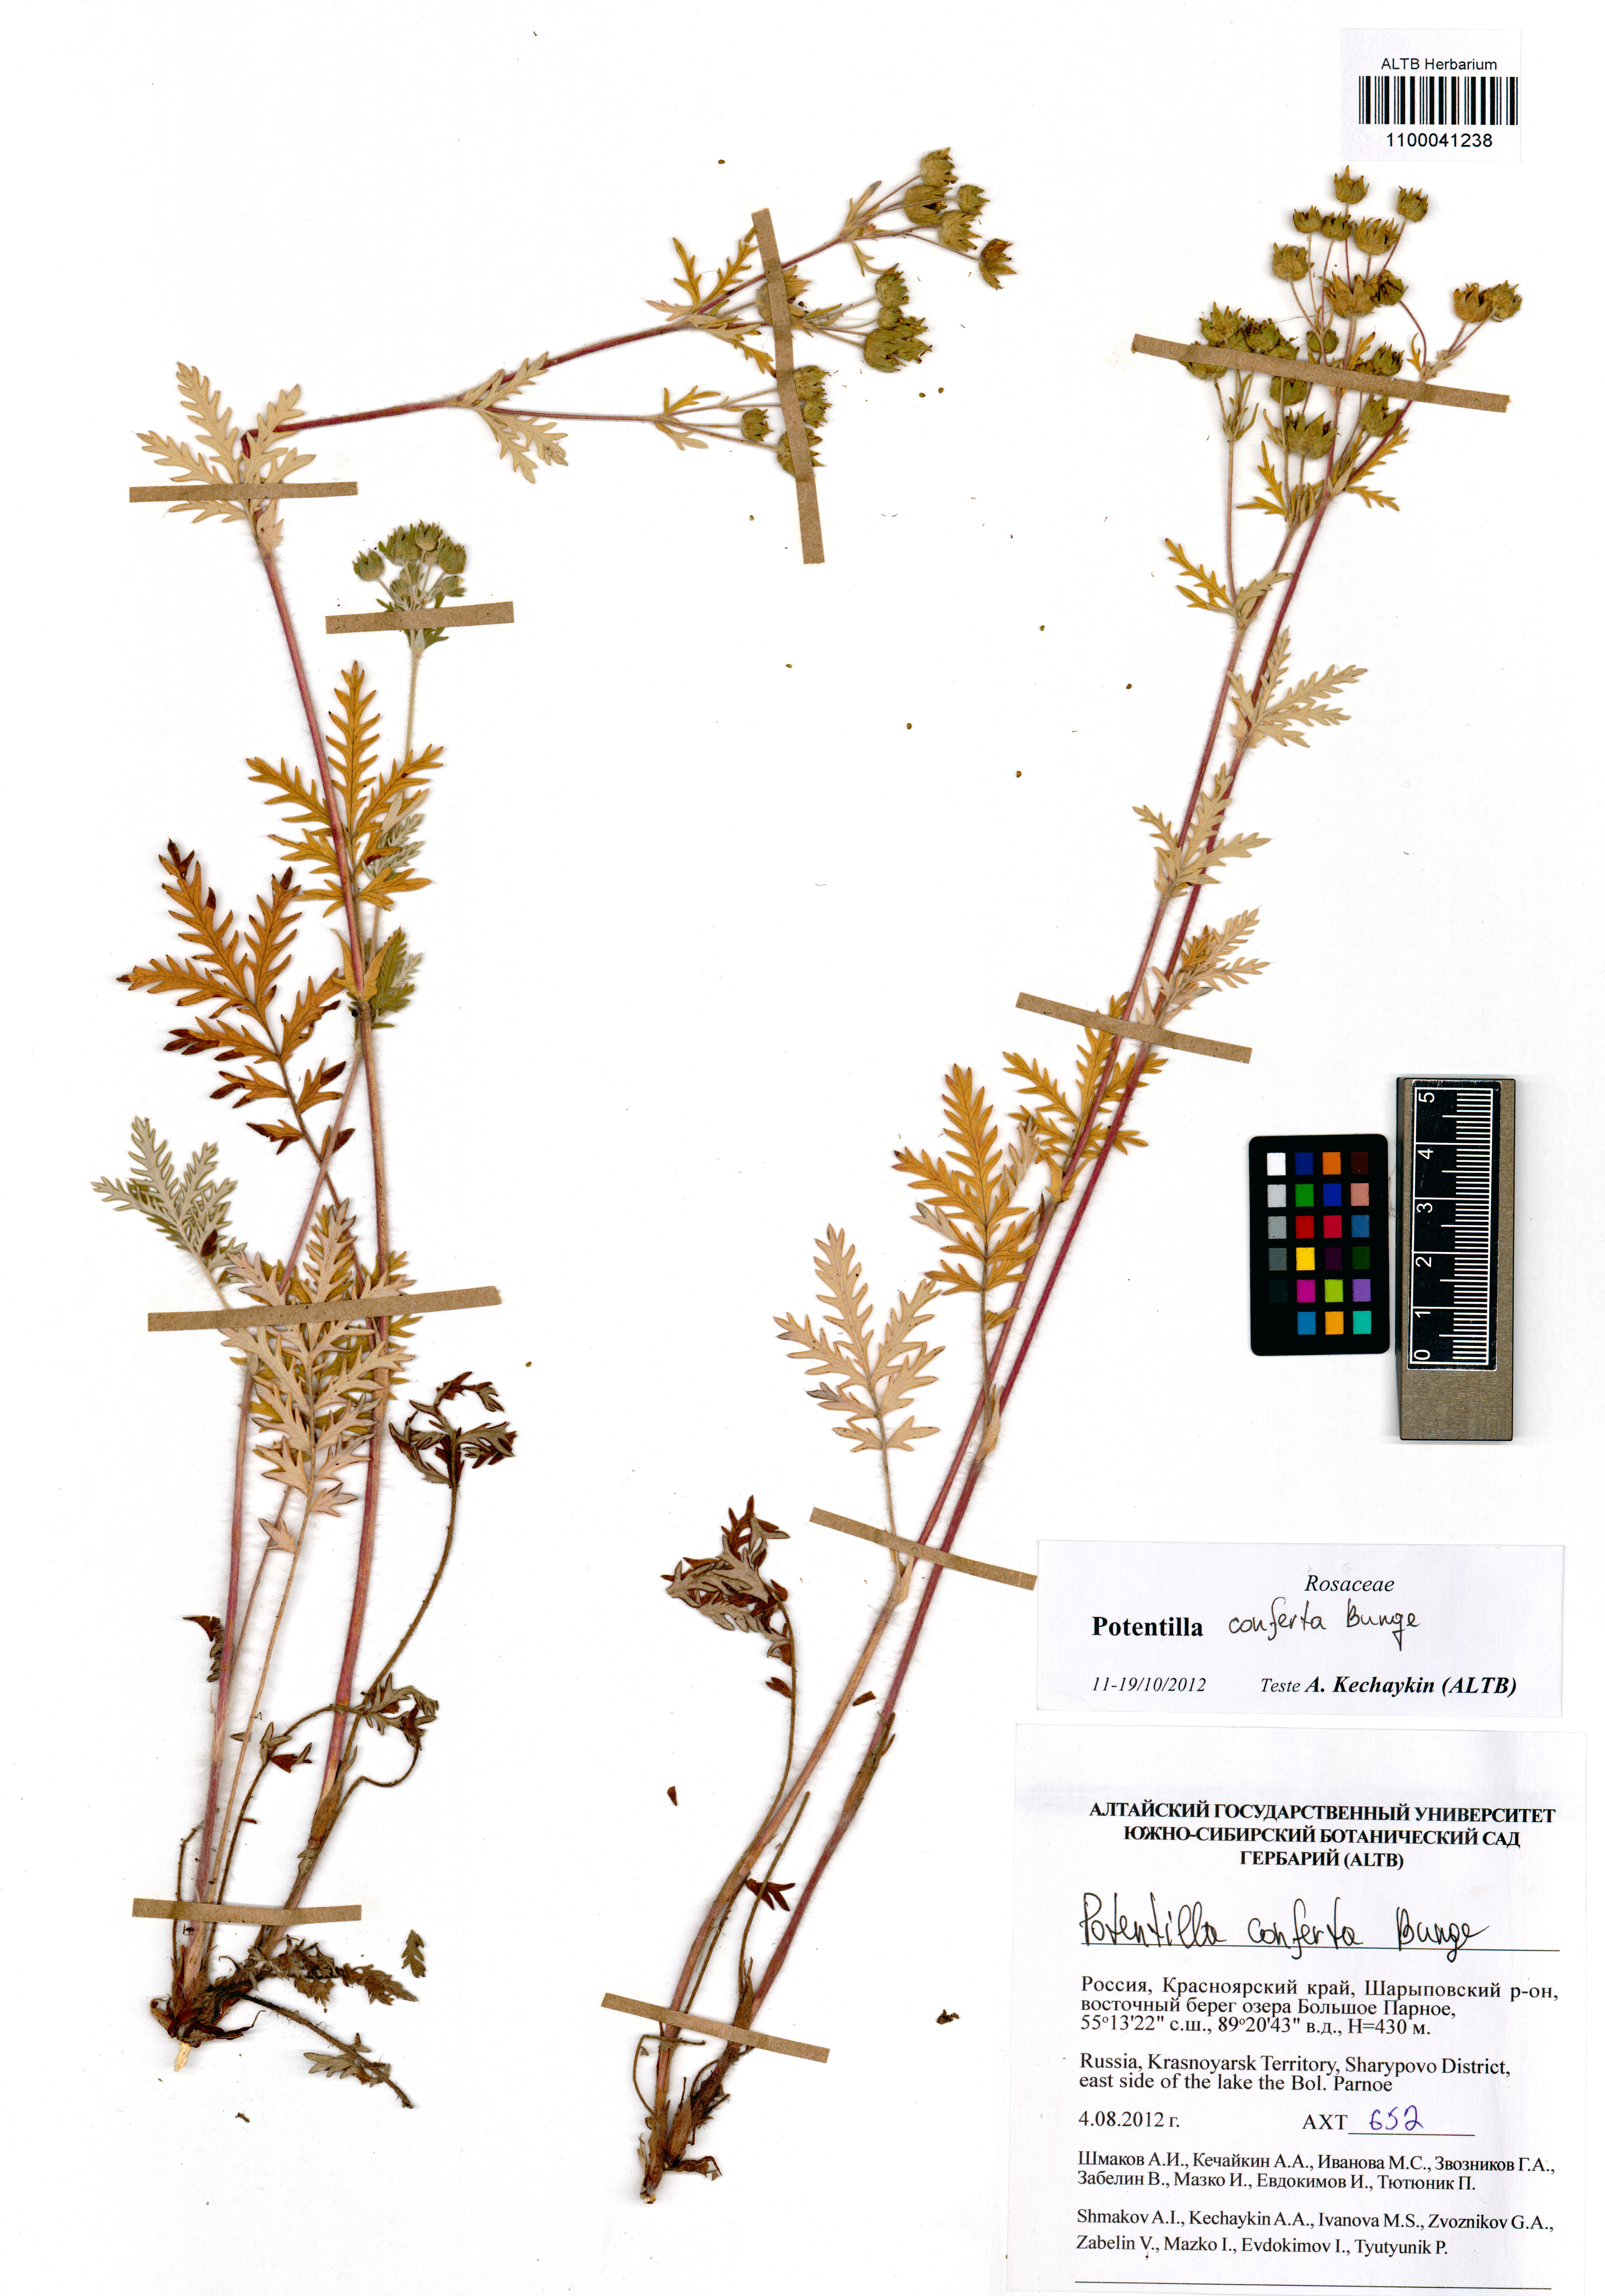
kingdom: Plantae
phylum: Tracheophyta
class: Magnoliopsida
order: Rosales
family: Rosaceae
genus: Potentilla
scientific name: Potentilla conferta
